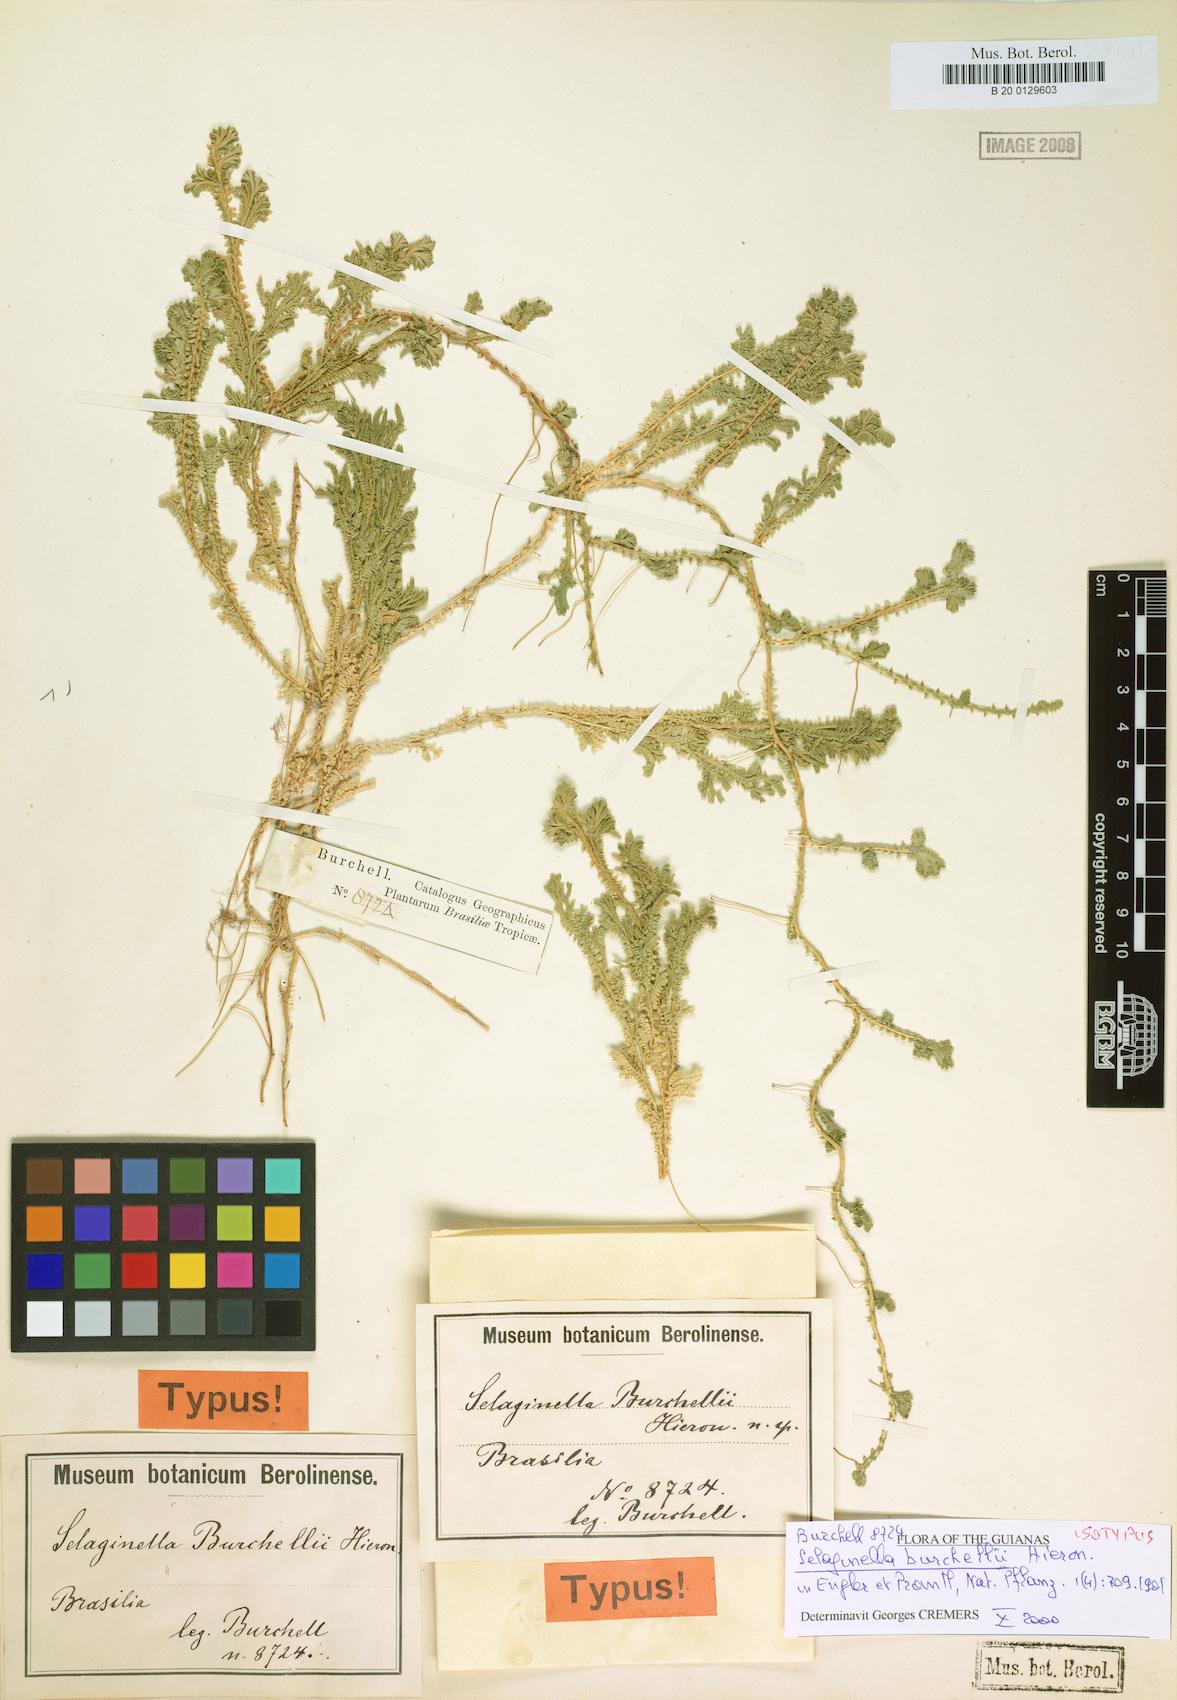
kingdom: Plantae
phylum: Tracheophyta
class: Lycopodiopsida
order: Selaginellales
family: Selaginellaceae
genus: Selaginella
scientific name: Selaginella marginata
